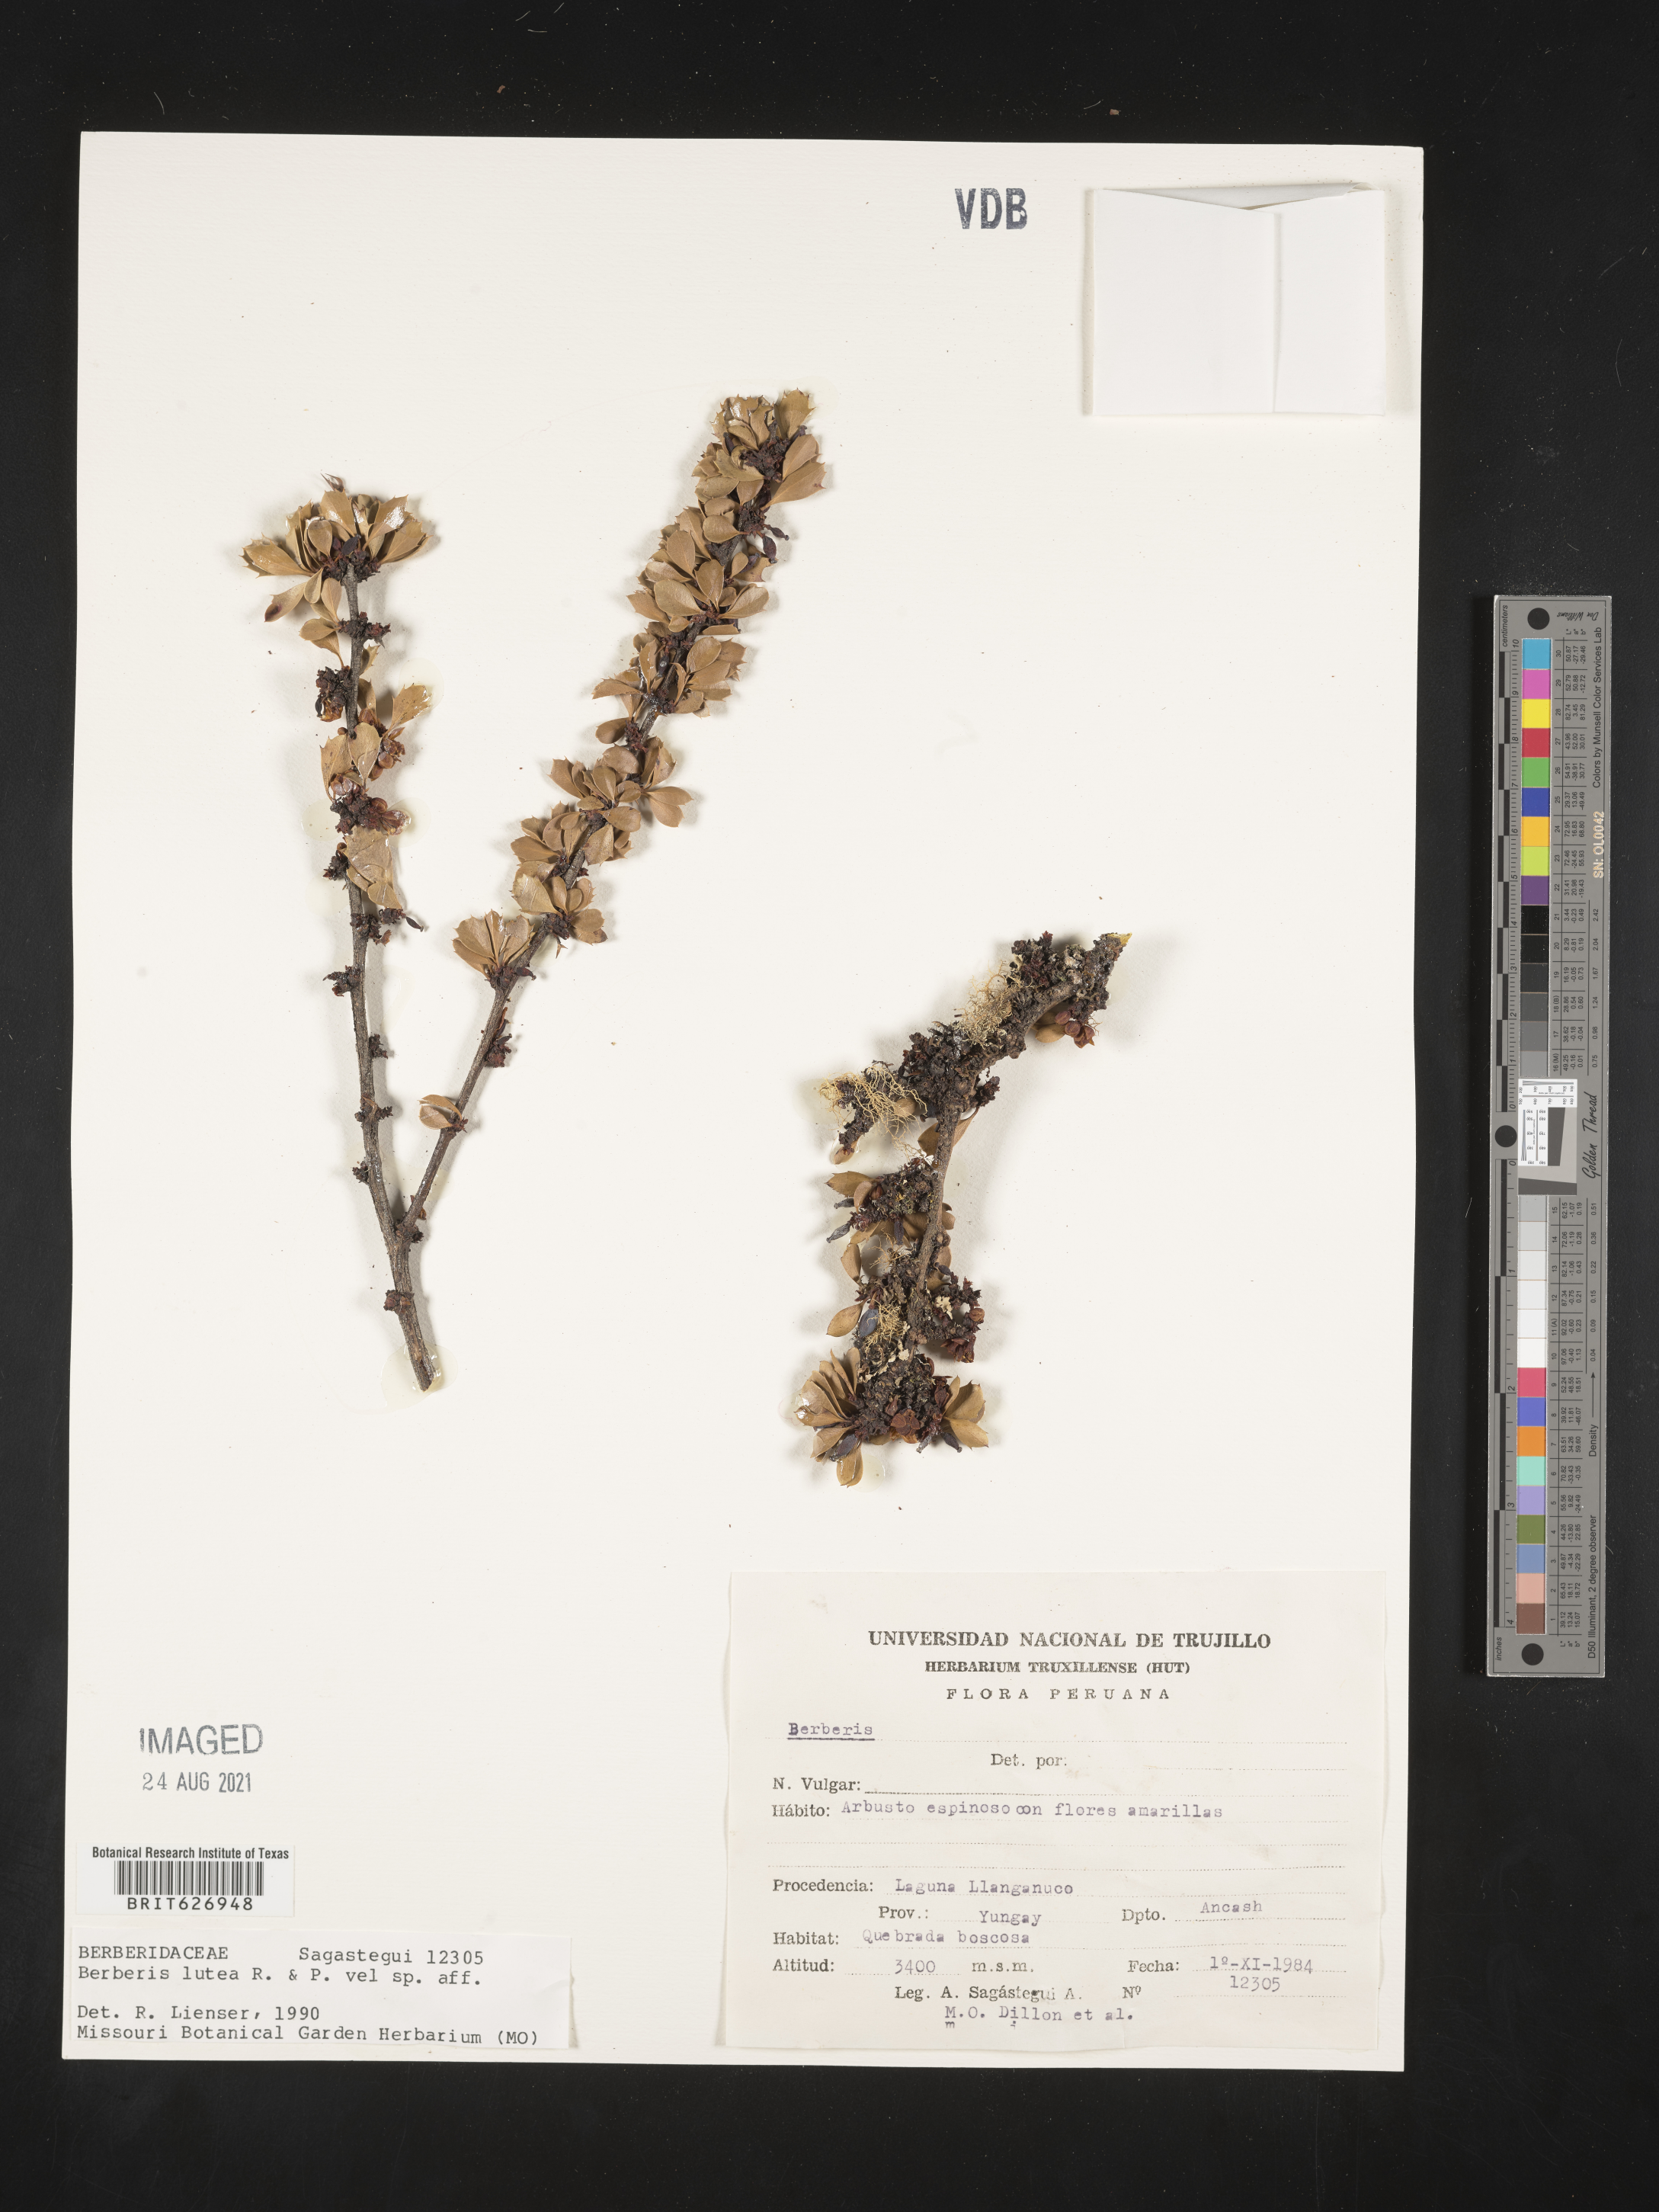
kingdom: Plantae
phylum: Tracheophyta
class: Magnoliopsida
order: Ranunculales
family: Berberidaceae
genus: Berberis
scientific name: Berberis lutea
